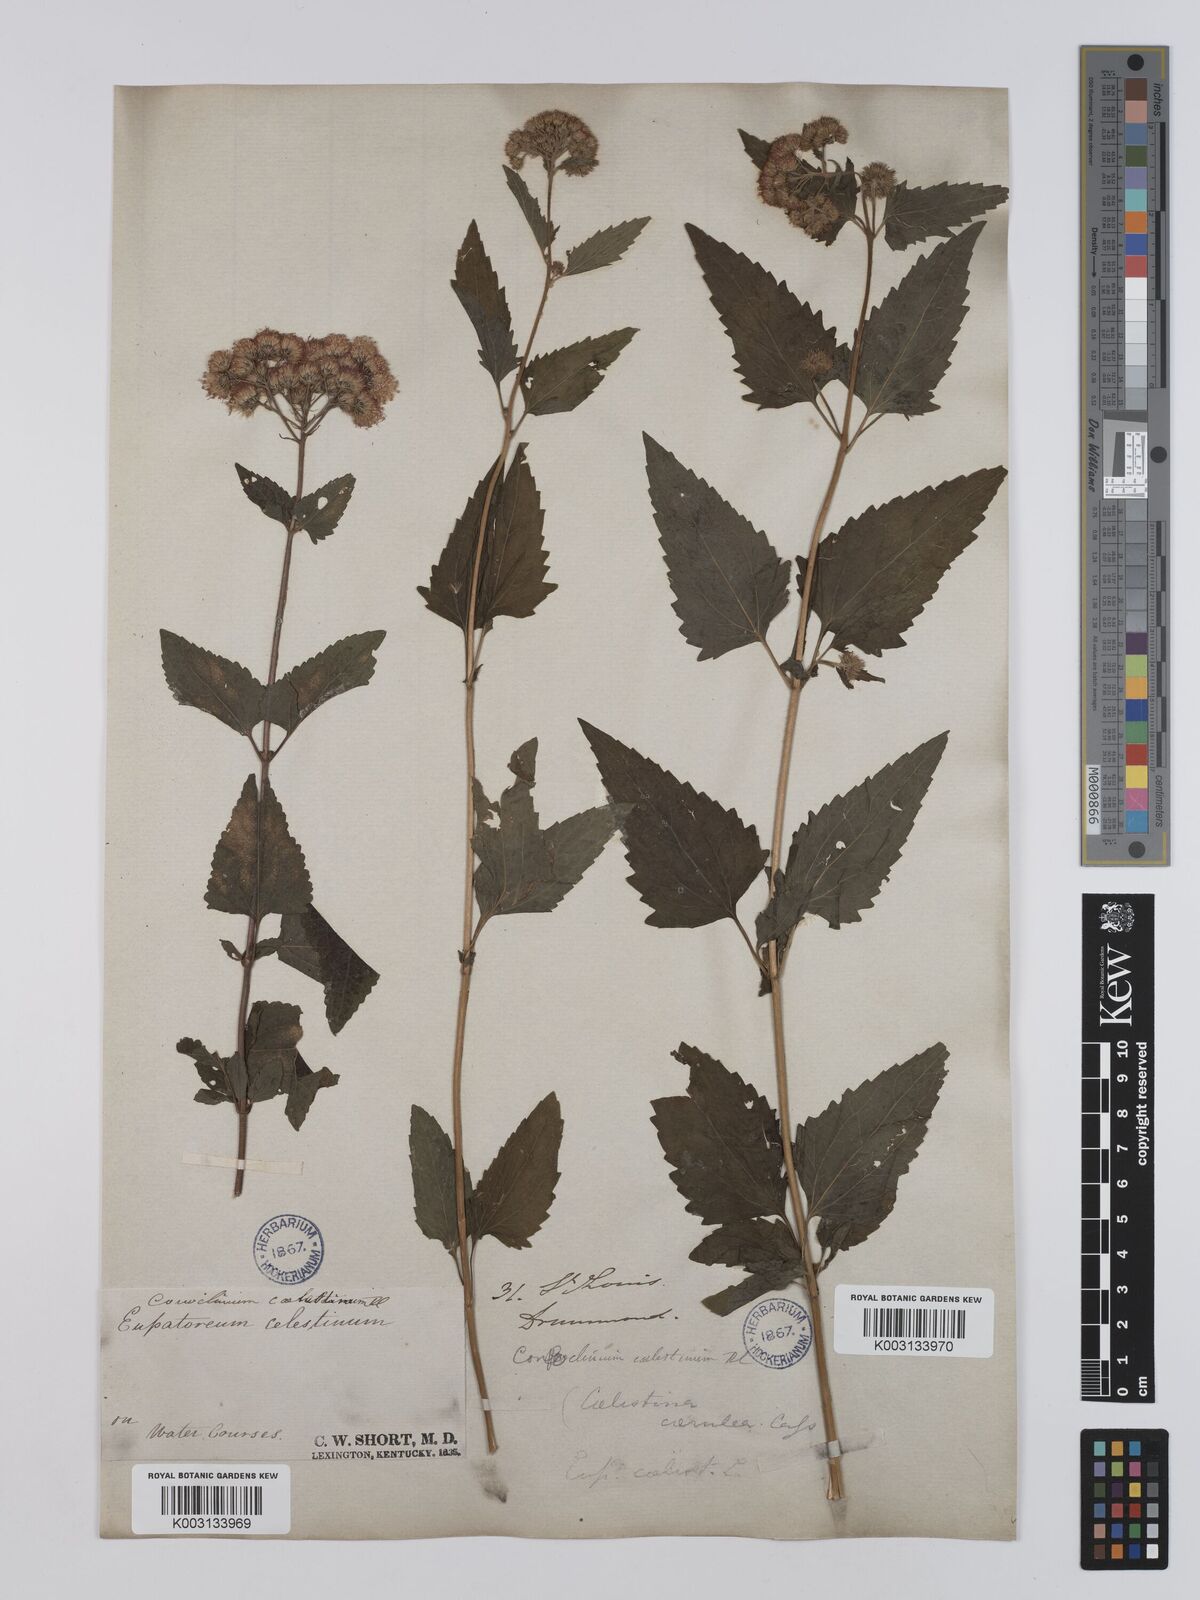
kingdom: Plantae
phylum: Tracheophyta
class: Magnoliopsida
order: Asterales
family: Asteraceae
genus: Conoclinium
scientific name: Conoclinium coelestinum
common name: Blue mistflower
